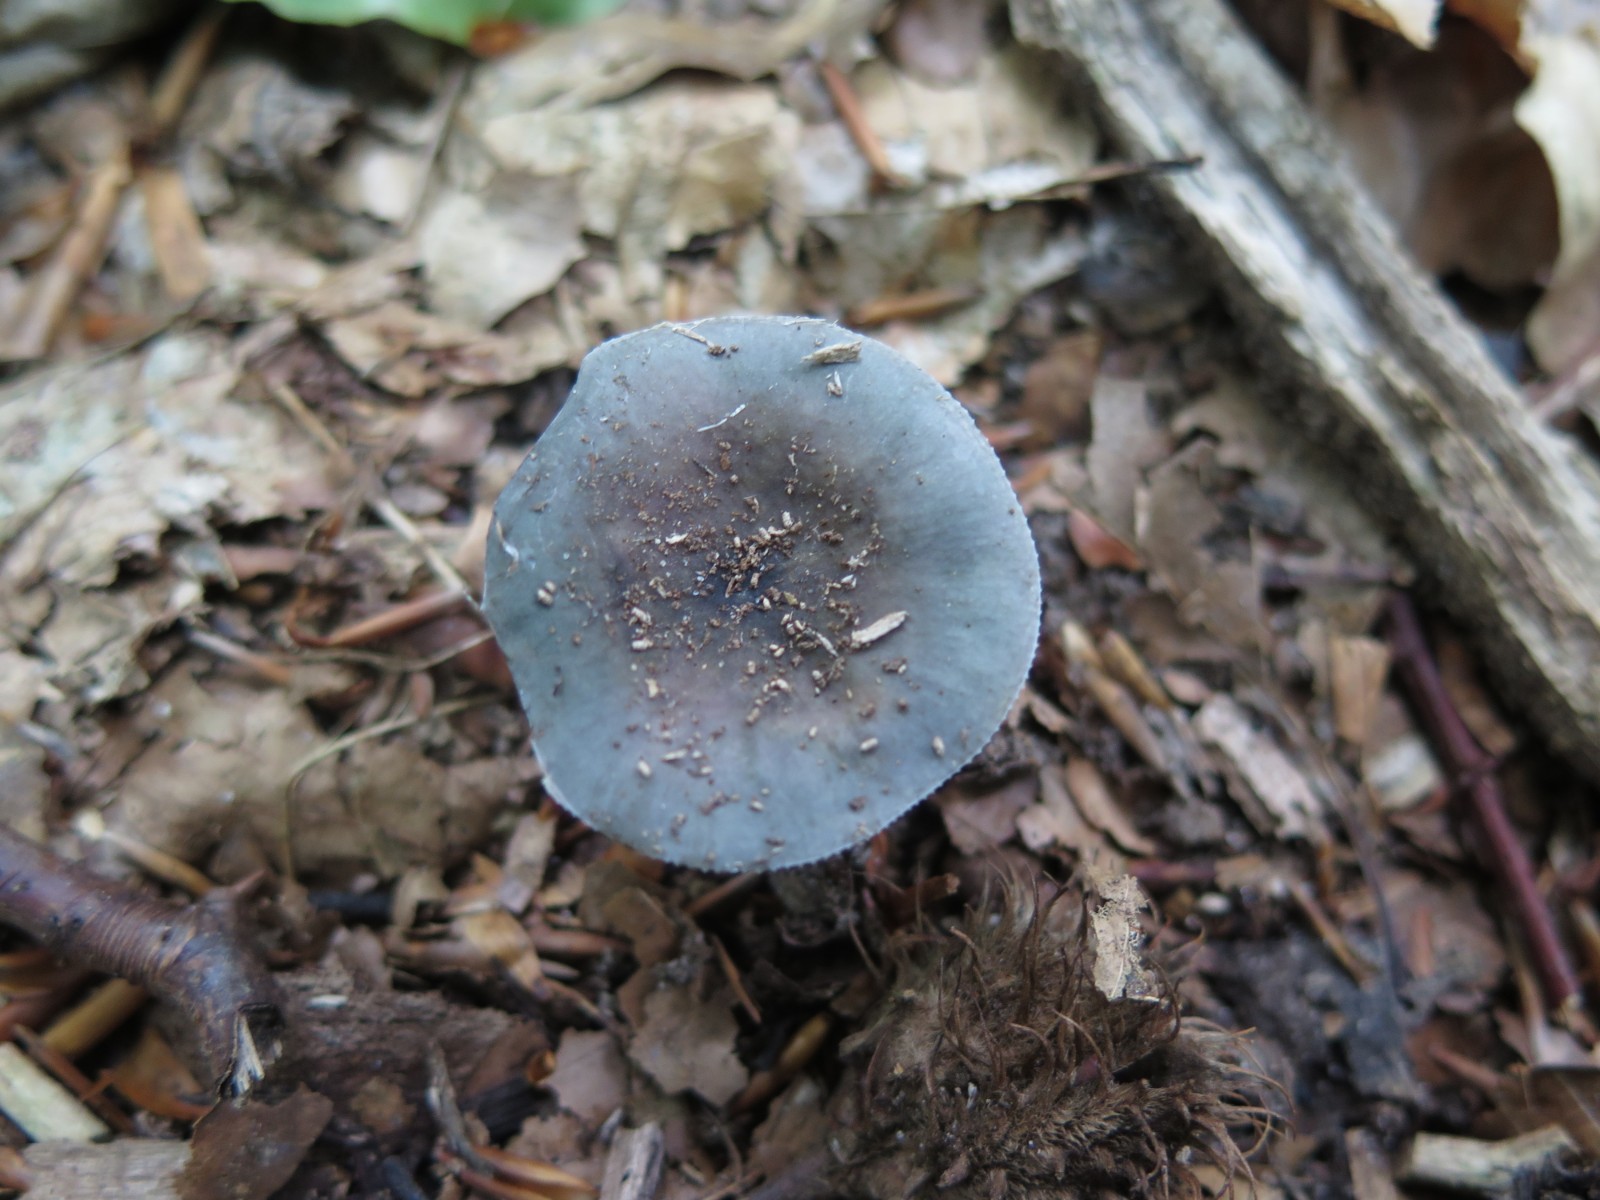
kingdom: Fungi
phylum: Basidiomycota
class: Agaricomycetes
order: Russulales
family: Russulaceae
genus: Russula
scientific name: Russula parazurea
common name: blågrå skørhat
